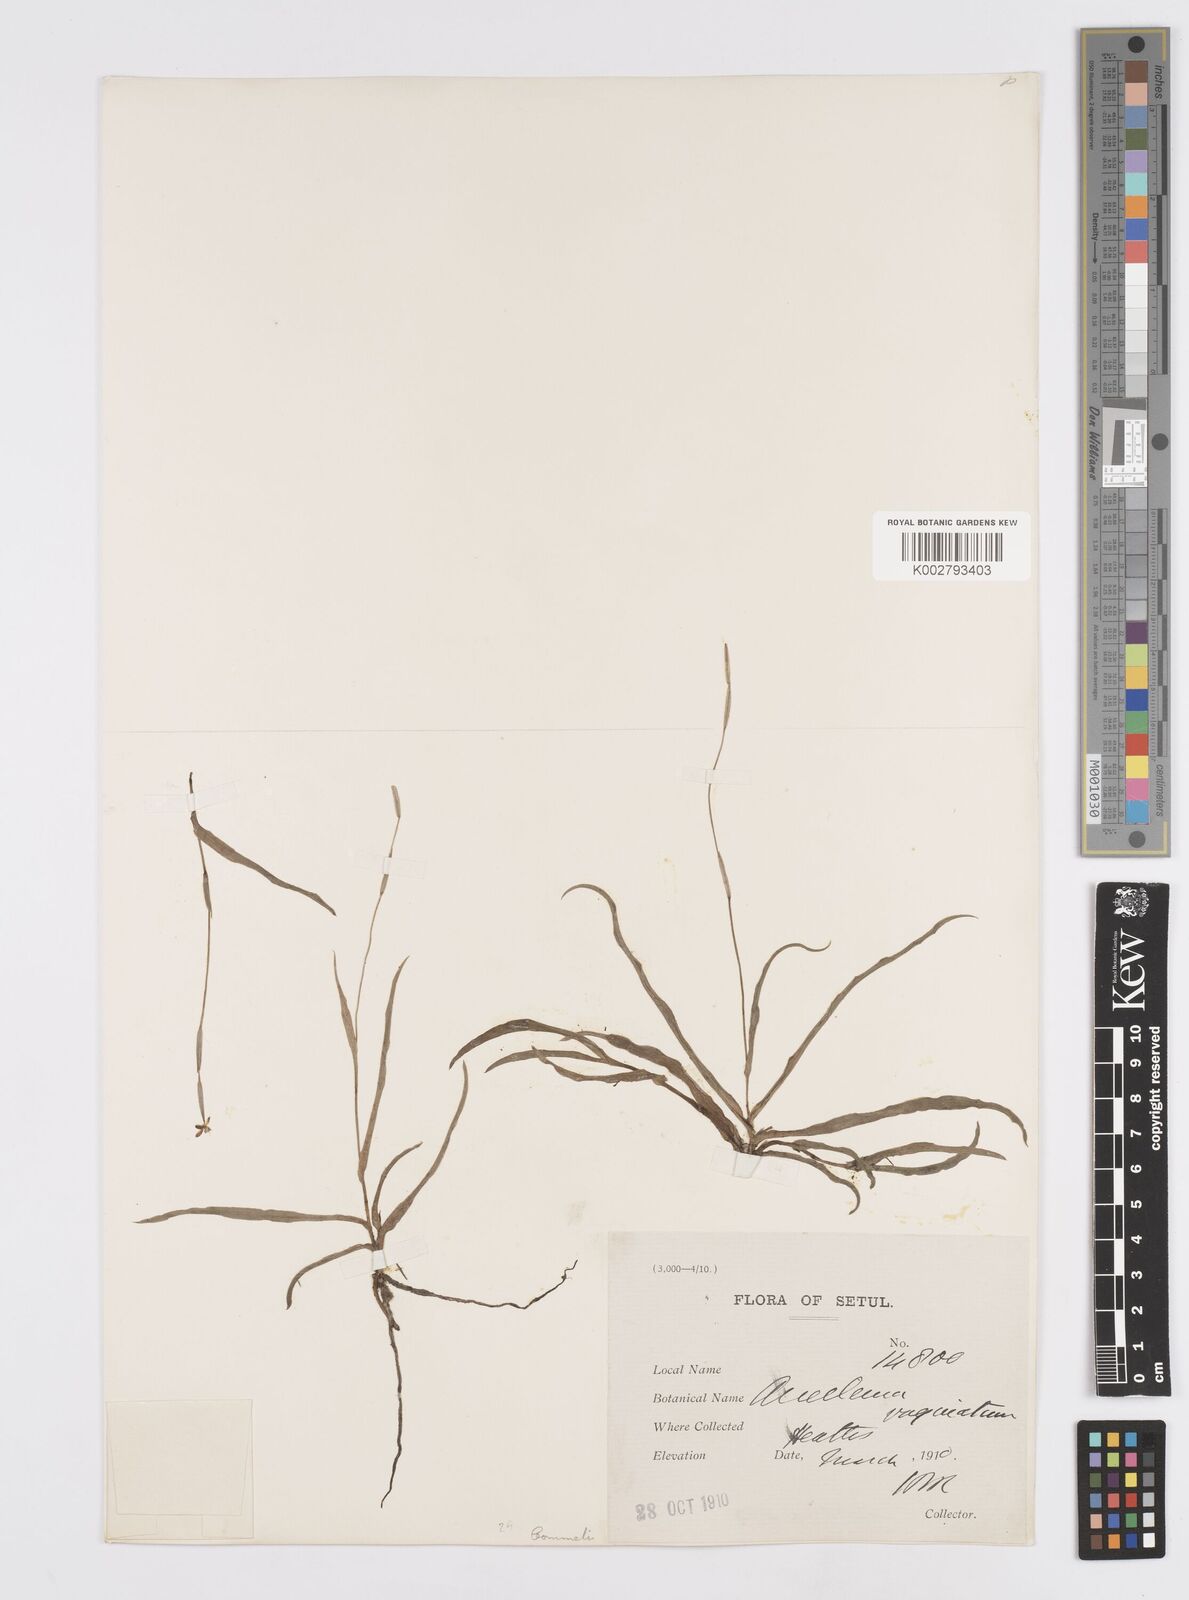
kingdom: Plantae
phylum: Tracheophyta
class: Liliopsida
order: Commelinales
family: Commelinaceae
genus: Murdannia
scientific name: Murdannia vaginata
